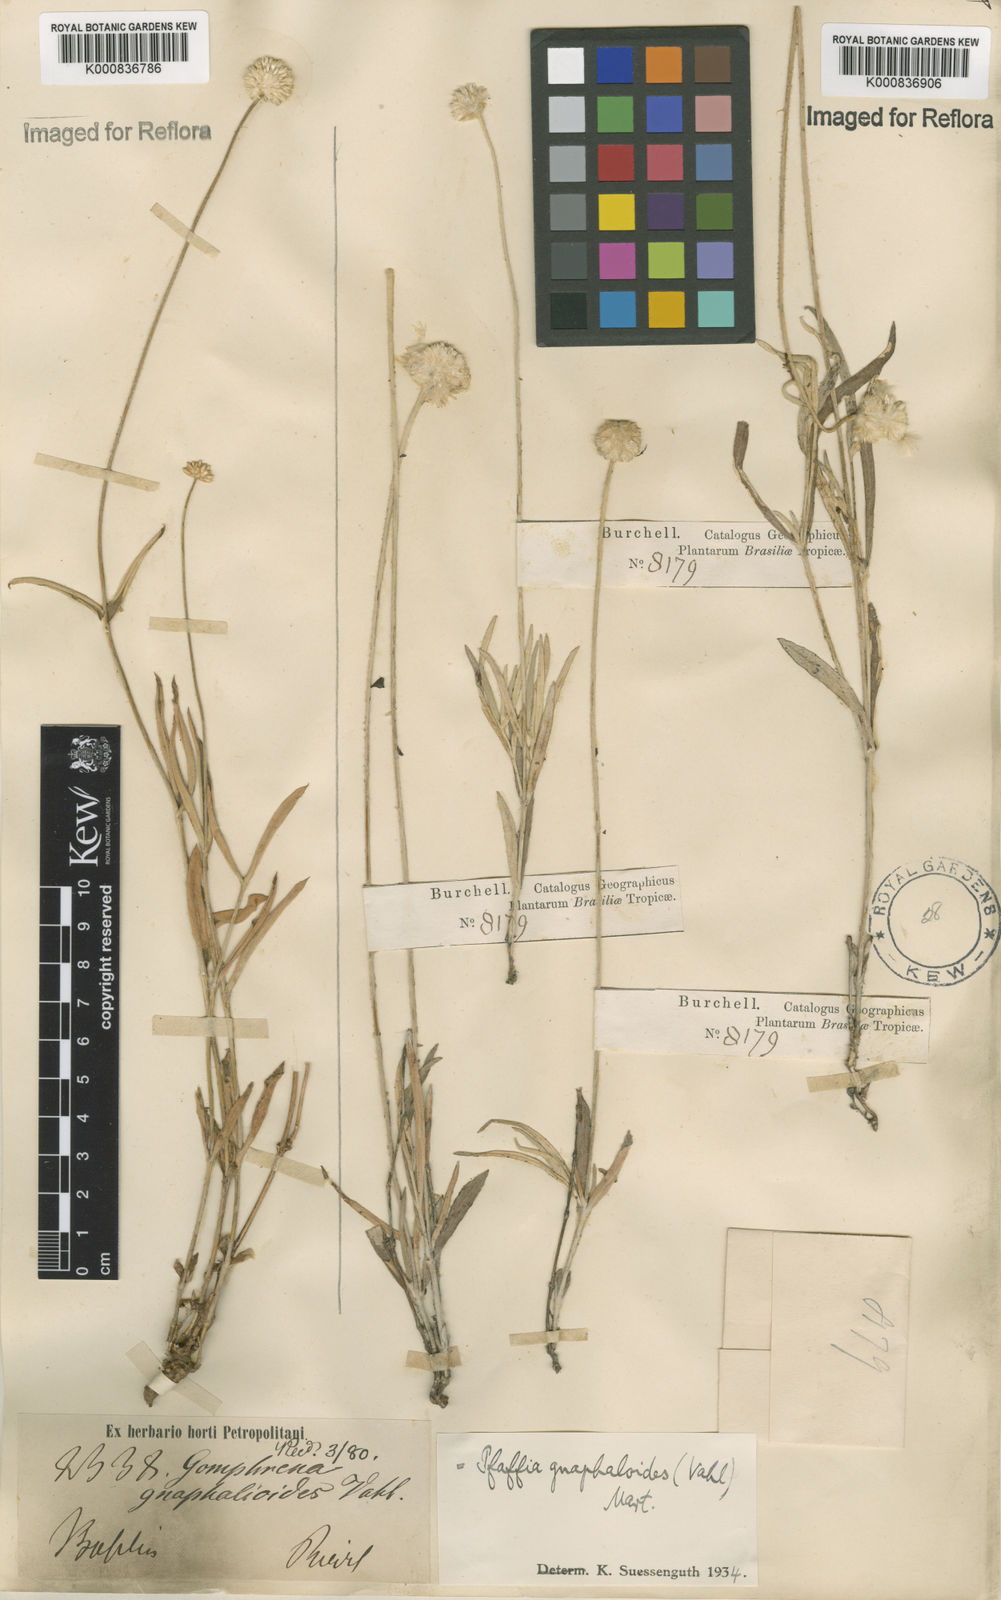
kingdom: Plantae
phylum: Tracheophyta
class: Magnoliopsida
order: Caryophyllales
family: Amaranthaceae
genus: Pfaffia
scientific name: Pfaffia
